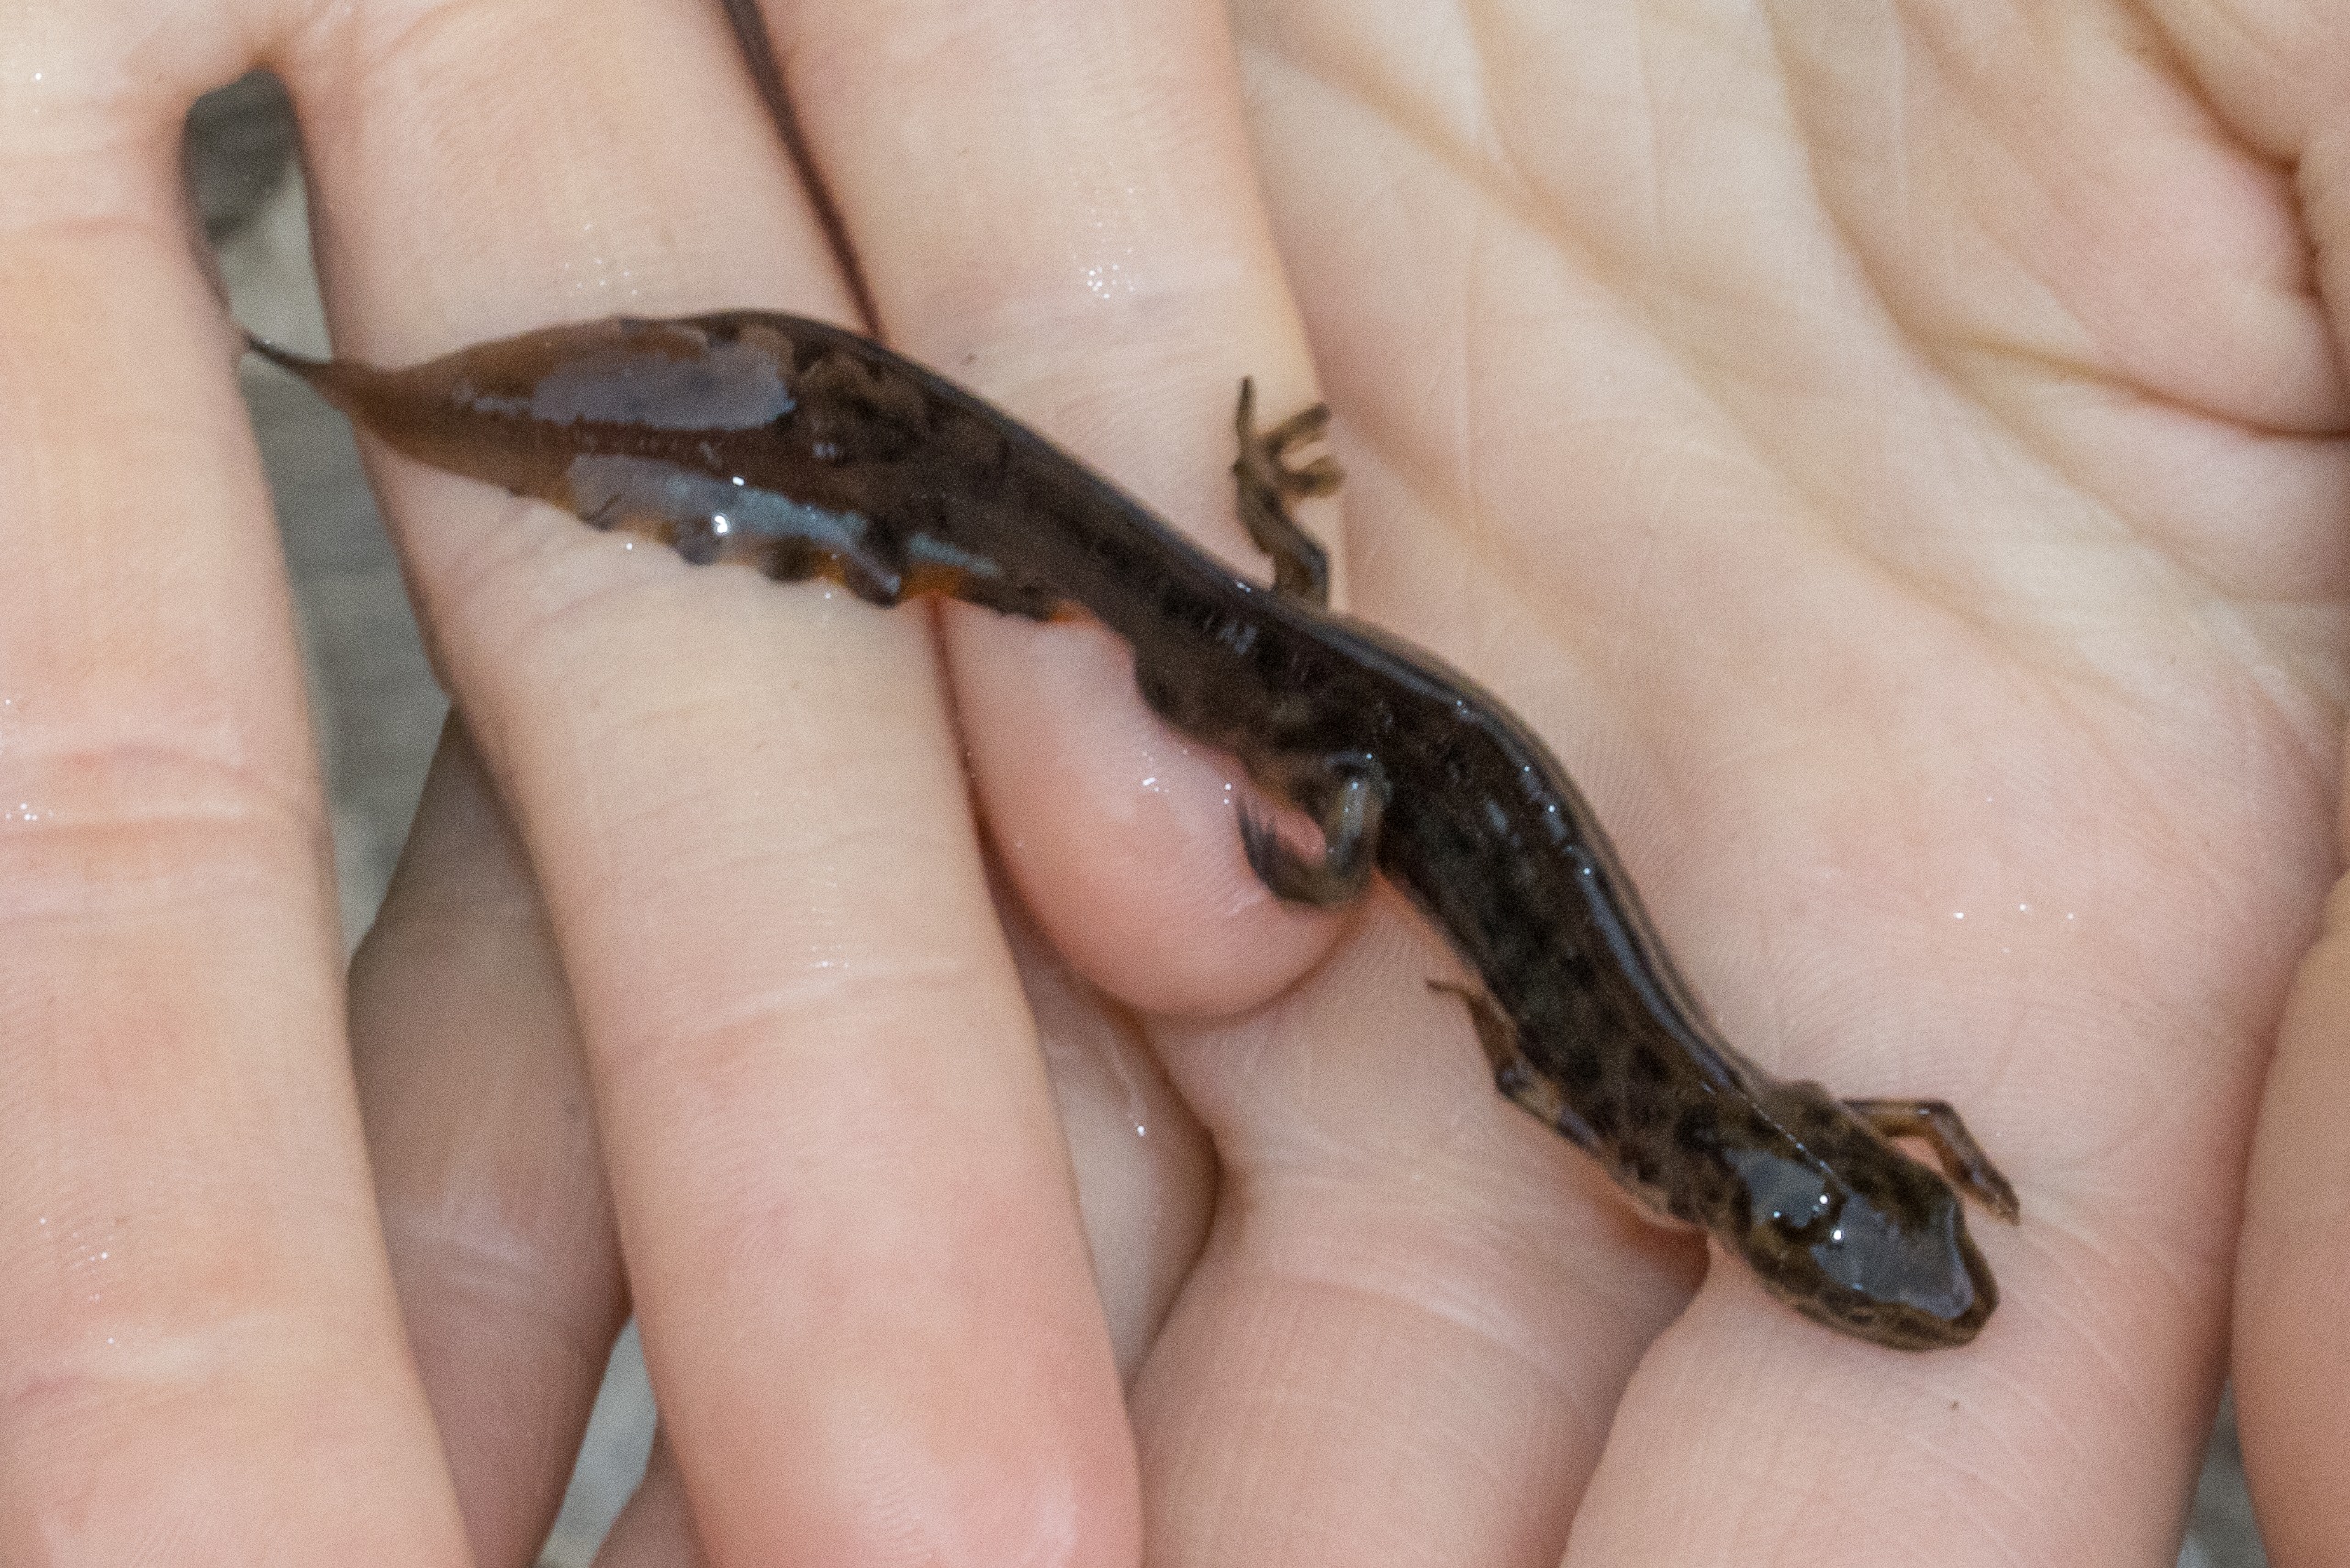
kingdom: Animalia
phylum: Chordata
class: Amphibia
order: Caudata
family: Salamandridae
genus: Lissotriton
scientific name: Lissotriton vulgaris
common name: Lille vandsalamander
